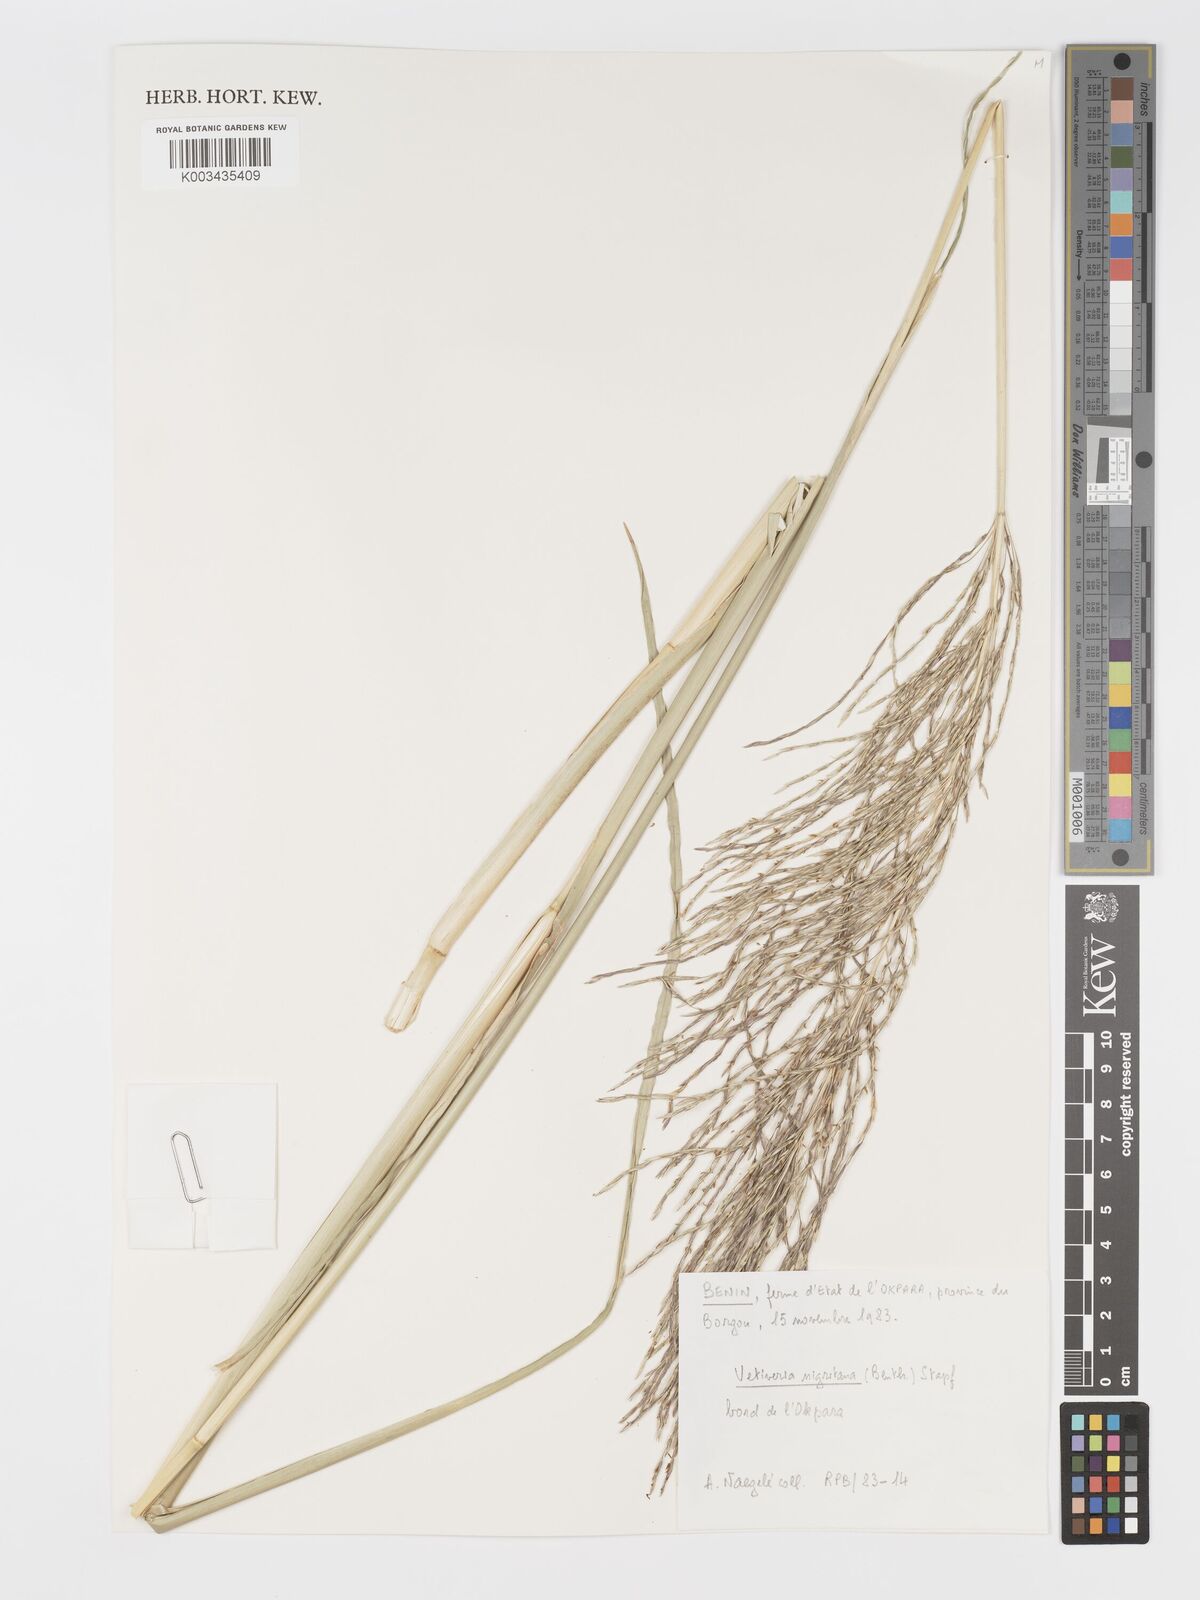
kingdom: Plantae
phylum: Tracheophyta
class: Liliopsida
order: Poales
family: Poaceae
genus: Chrysopogon
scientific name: Chrysopogon nigritanus
